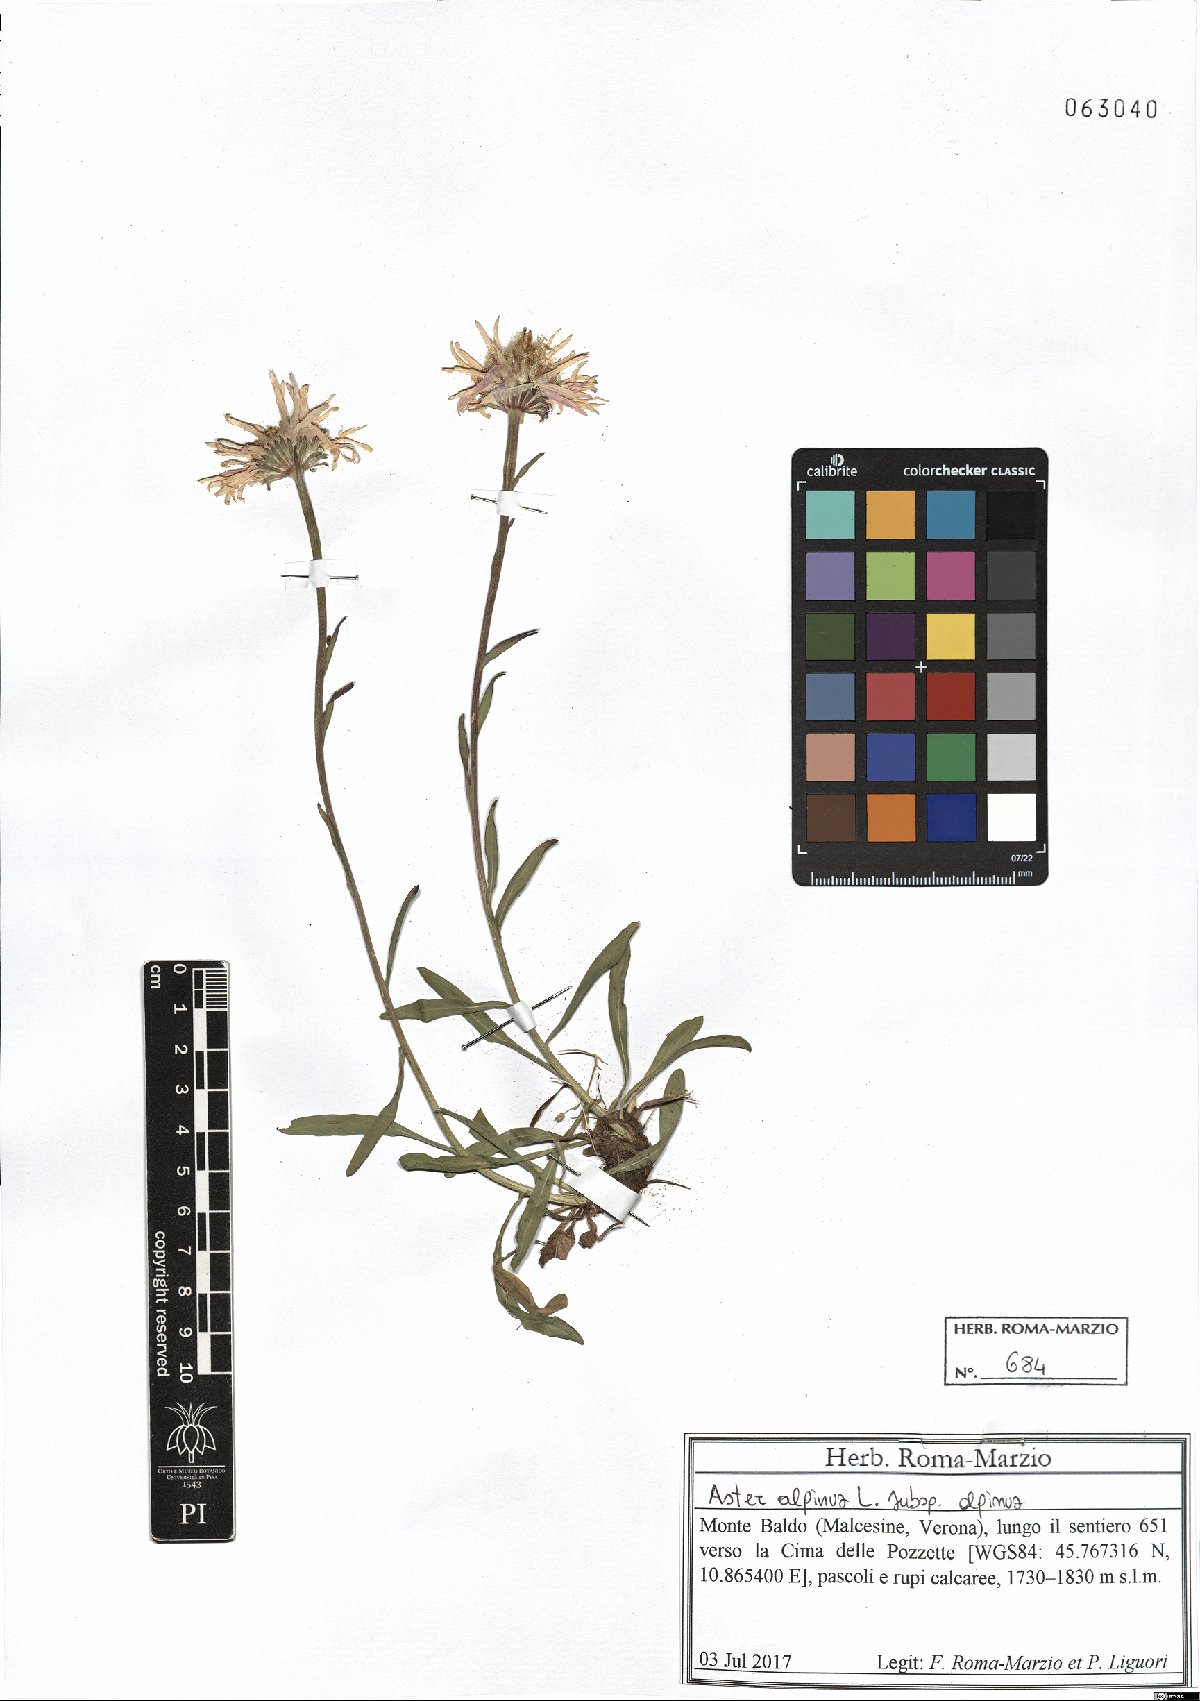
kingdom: Plantae
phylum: Tracheophyta
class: Magnoliopsida
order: Asterales
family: Asteraceae
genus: Aster
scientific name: Aster alpinus
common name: Alpine aster
